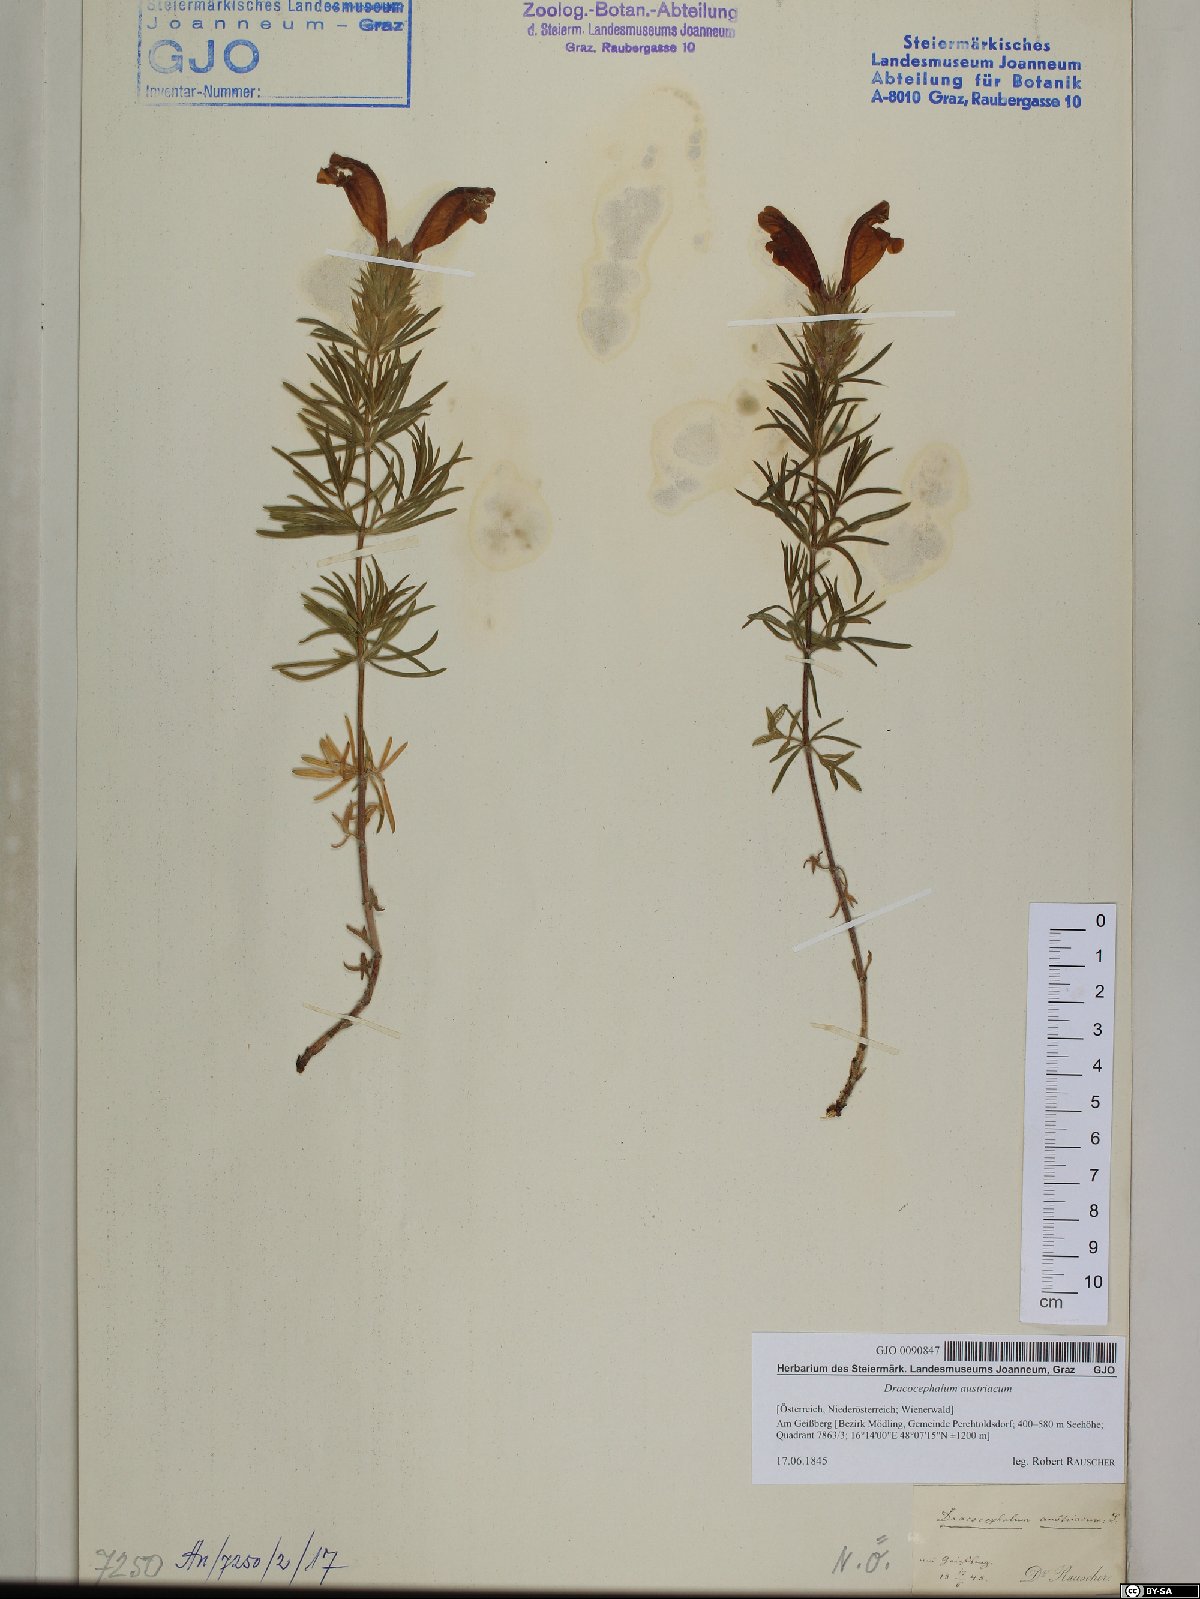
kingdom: Plantae
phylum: Tracheophyta
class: Magnoliopsida
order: Lamiales
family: Lamiaceae
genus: Dracocephalum
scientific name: Dracocephalum austriacum
